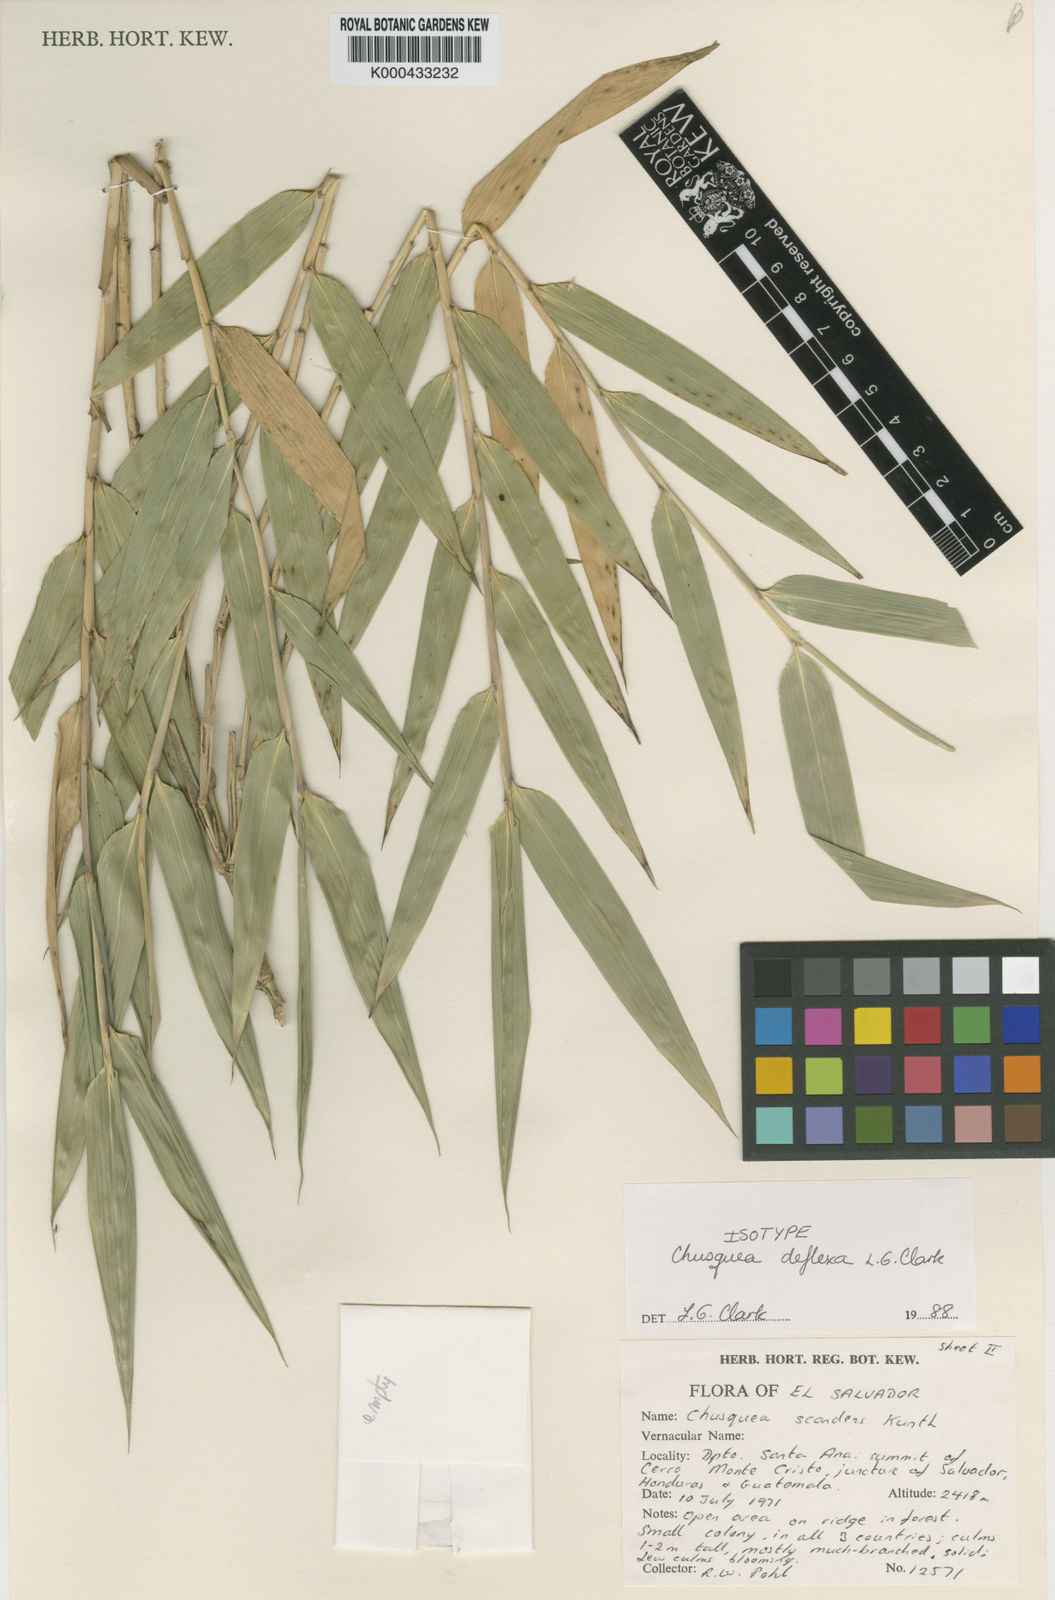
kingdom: Plantae
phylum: Tracheophyta
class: Liliopsida
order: Poales
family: Poaceae
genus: Chusquea
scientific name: Chusquea deflexa
